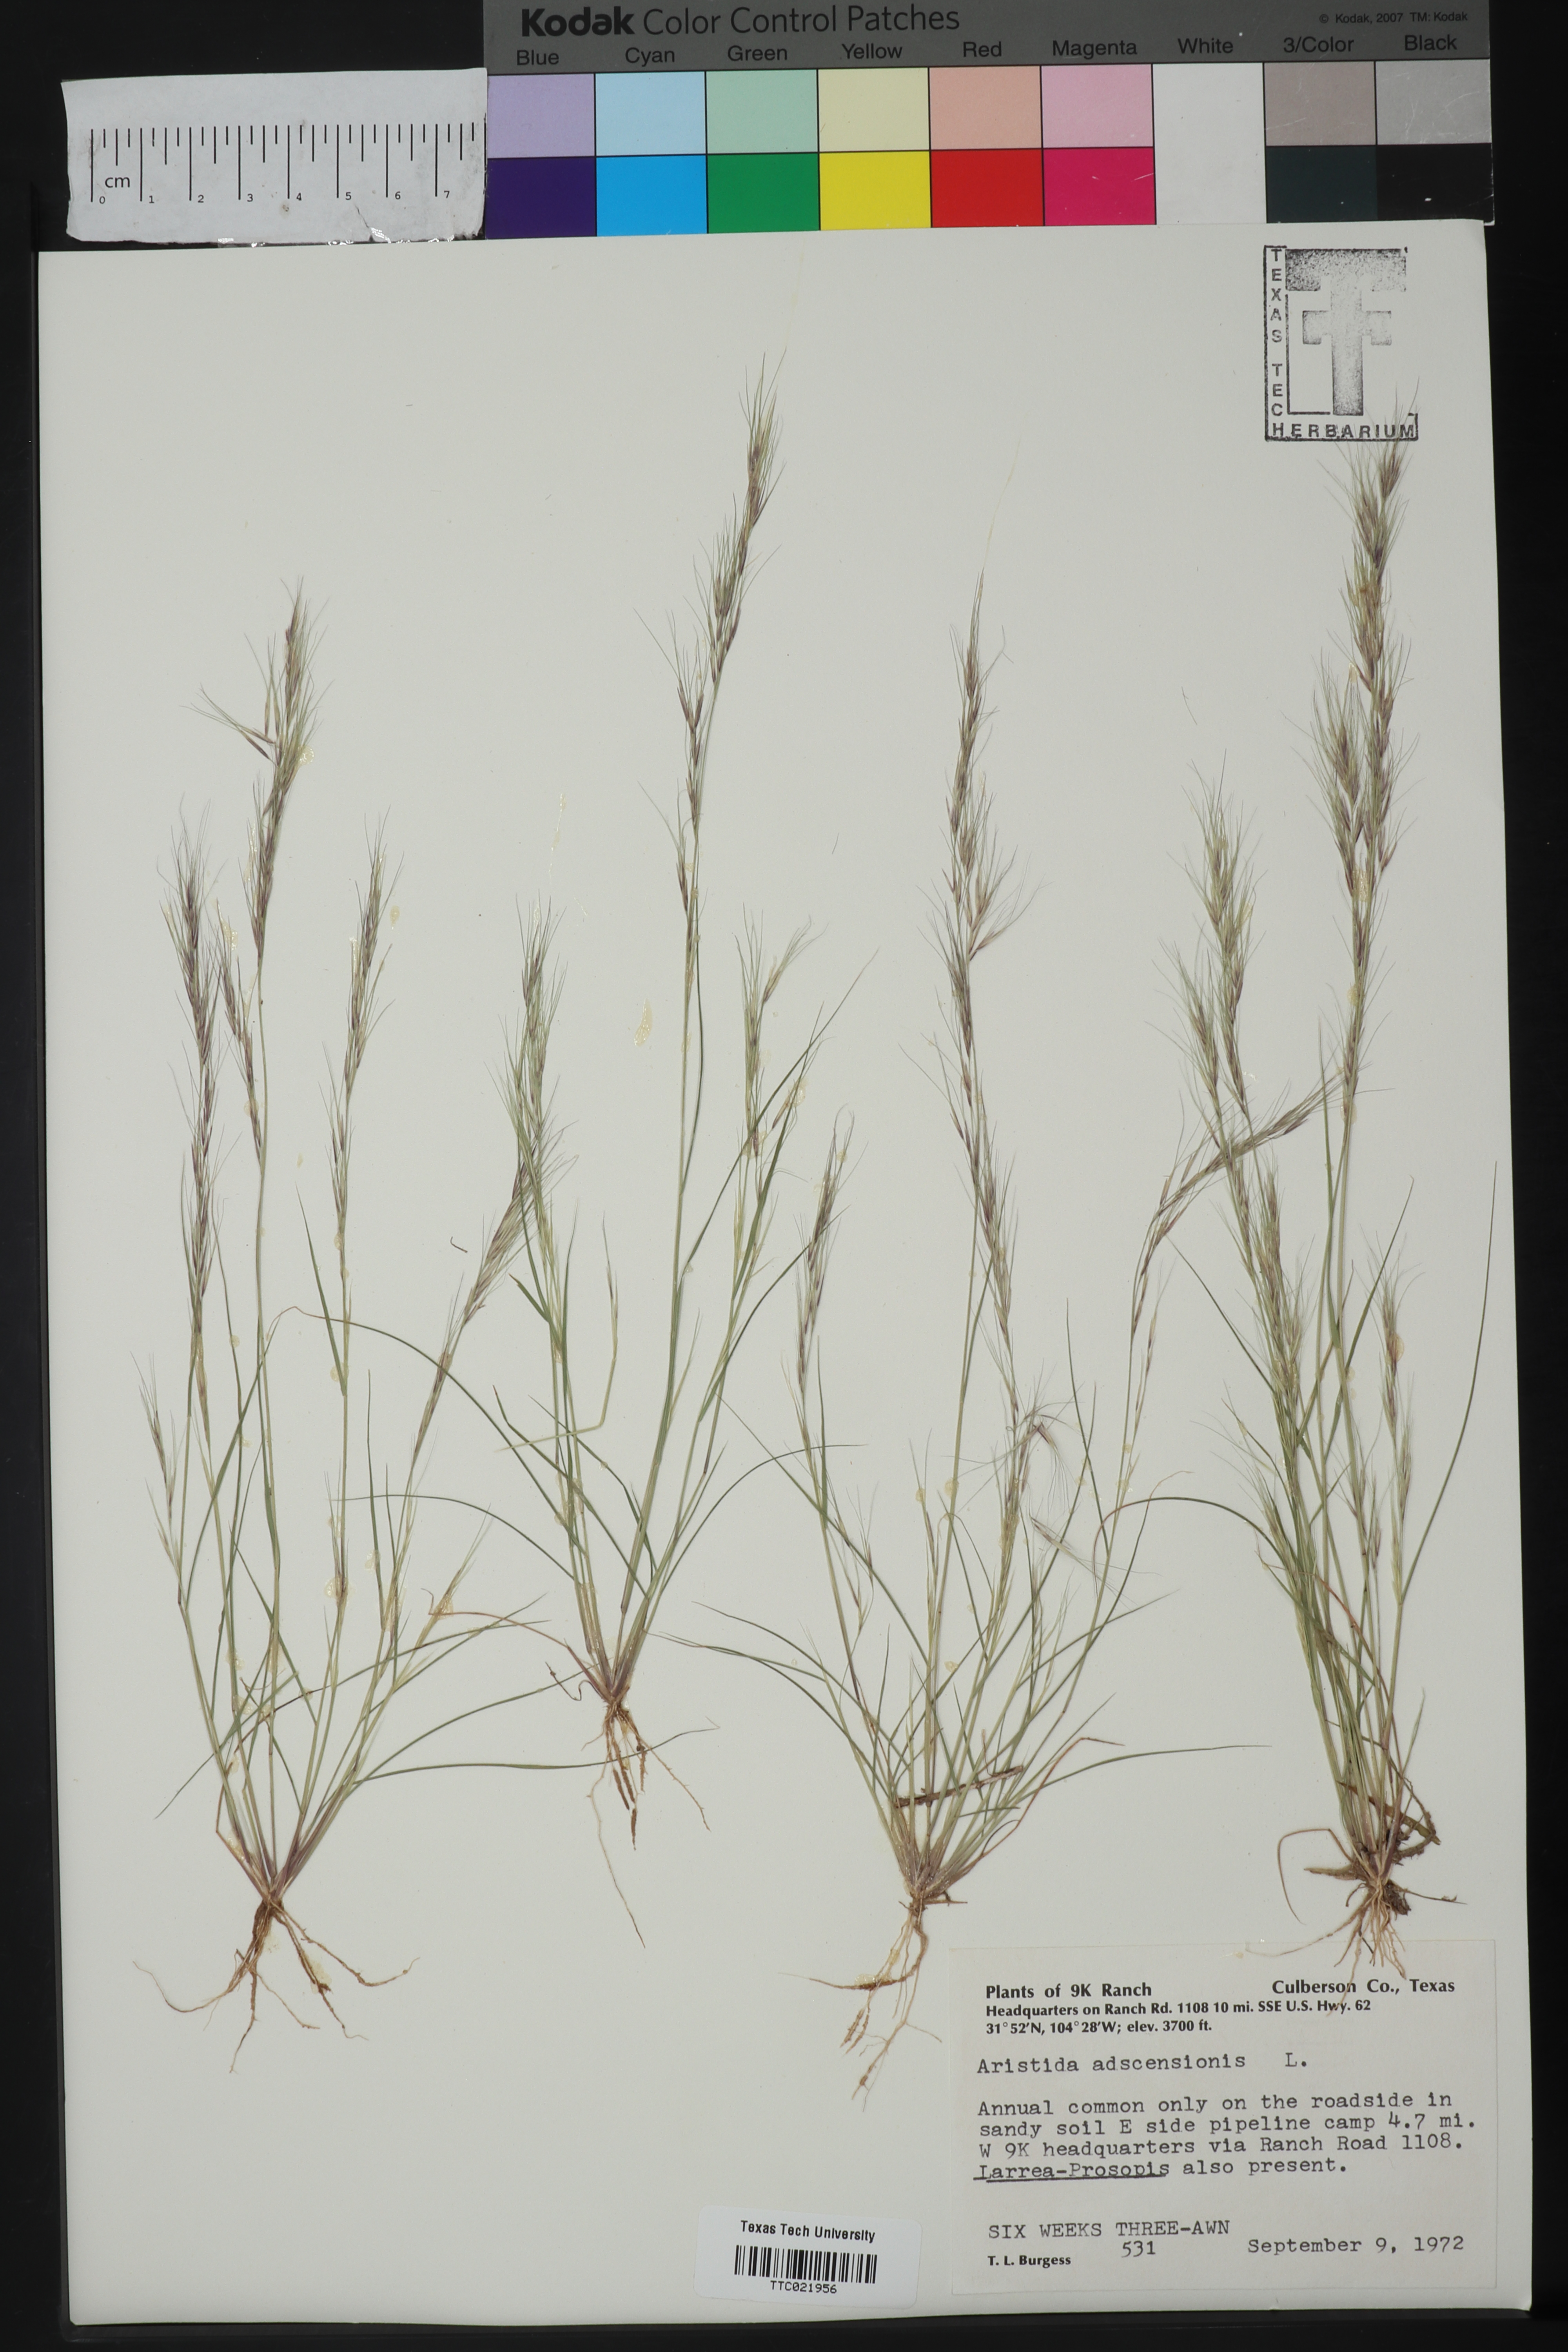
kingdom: Plantae
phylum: Tracheophyta
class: Liliopsida
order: Poales
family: Poaceae
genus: Aristida
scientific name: Aristida adscensionis
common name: Sixweeks threeawn
